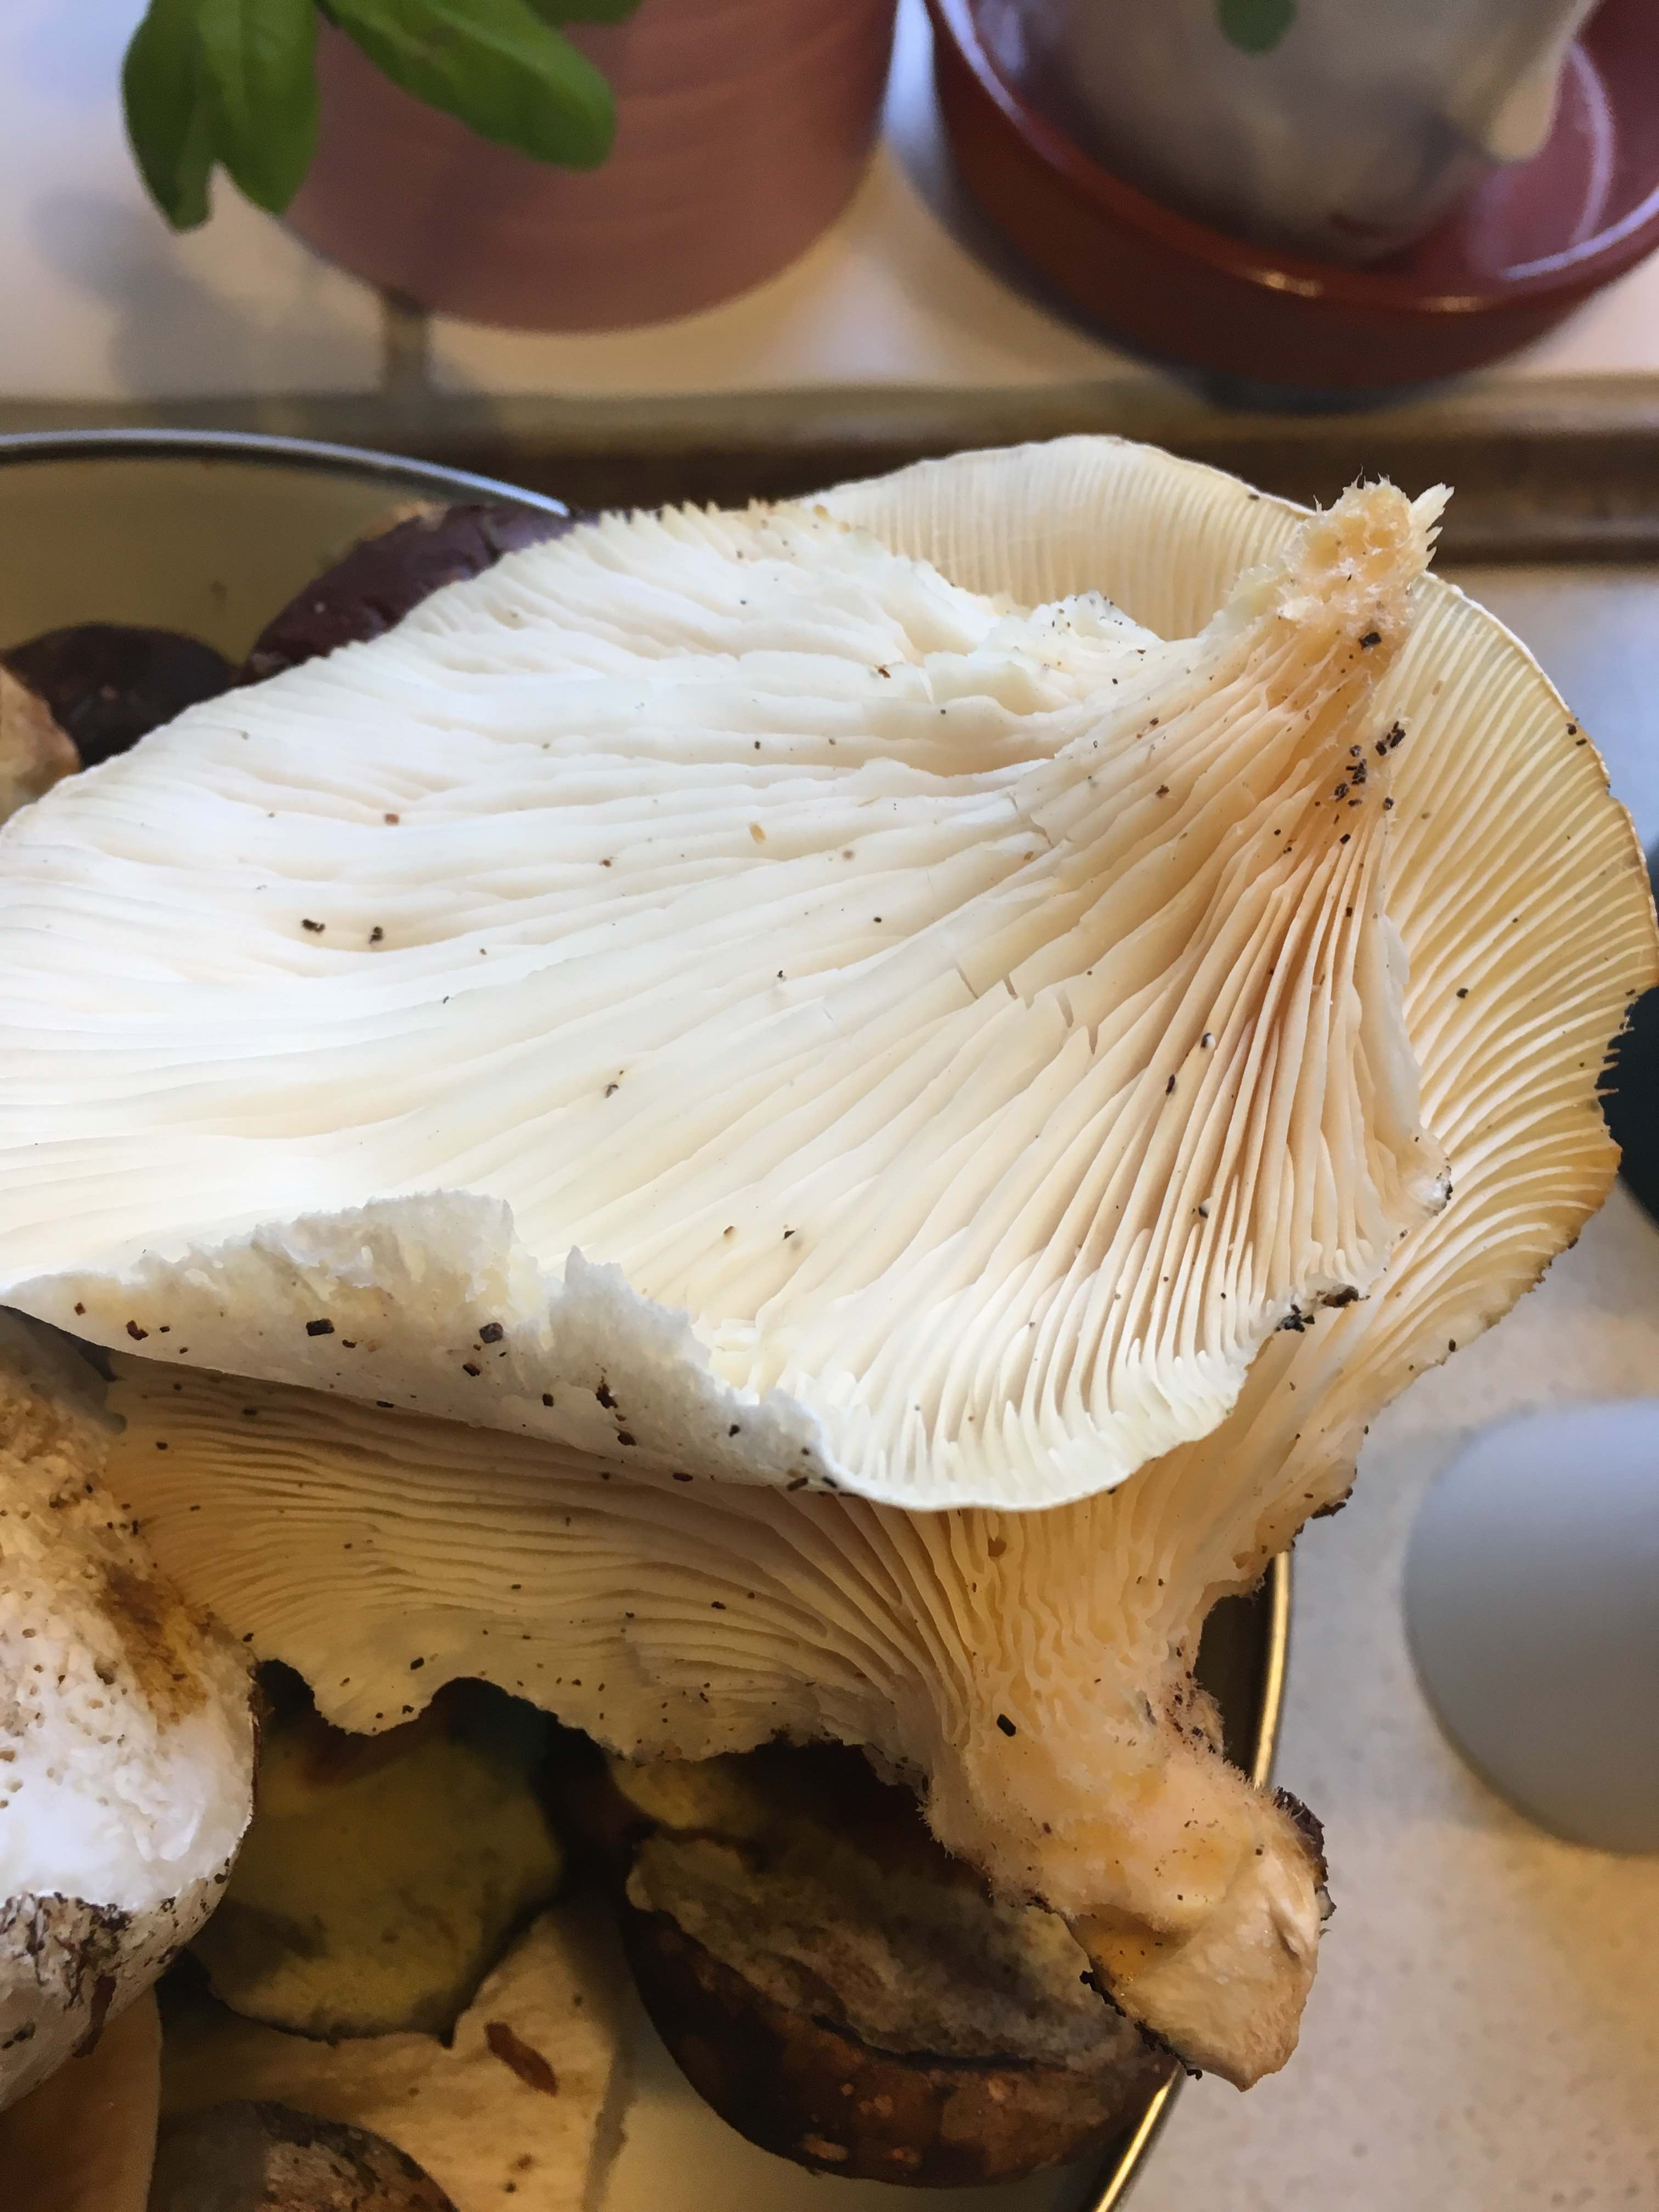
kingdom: Fungi
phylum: Basidiomycota
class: Agaricomycetes
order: Agaricales
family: Pleurotaceae
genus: Pleurotus
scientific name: Pleurotus dryinus
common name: korkagtig østershat
